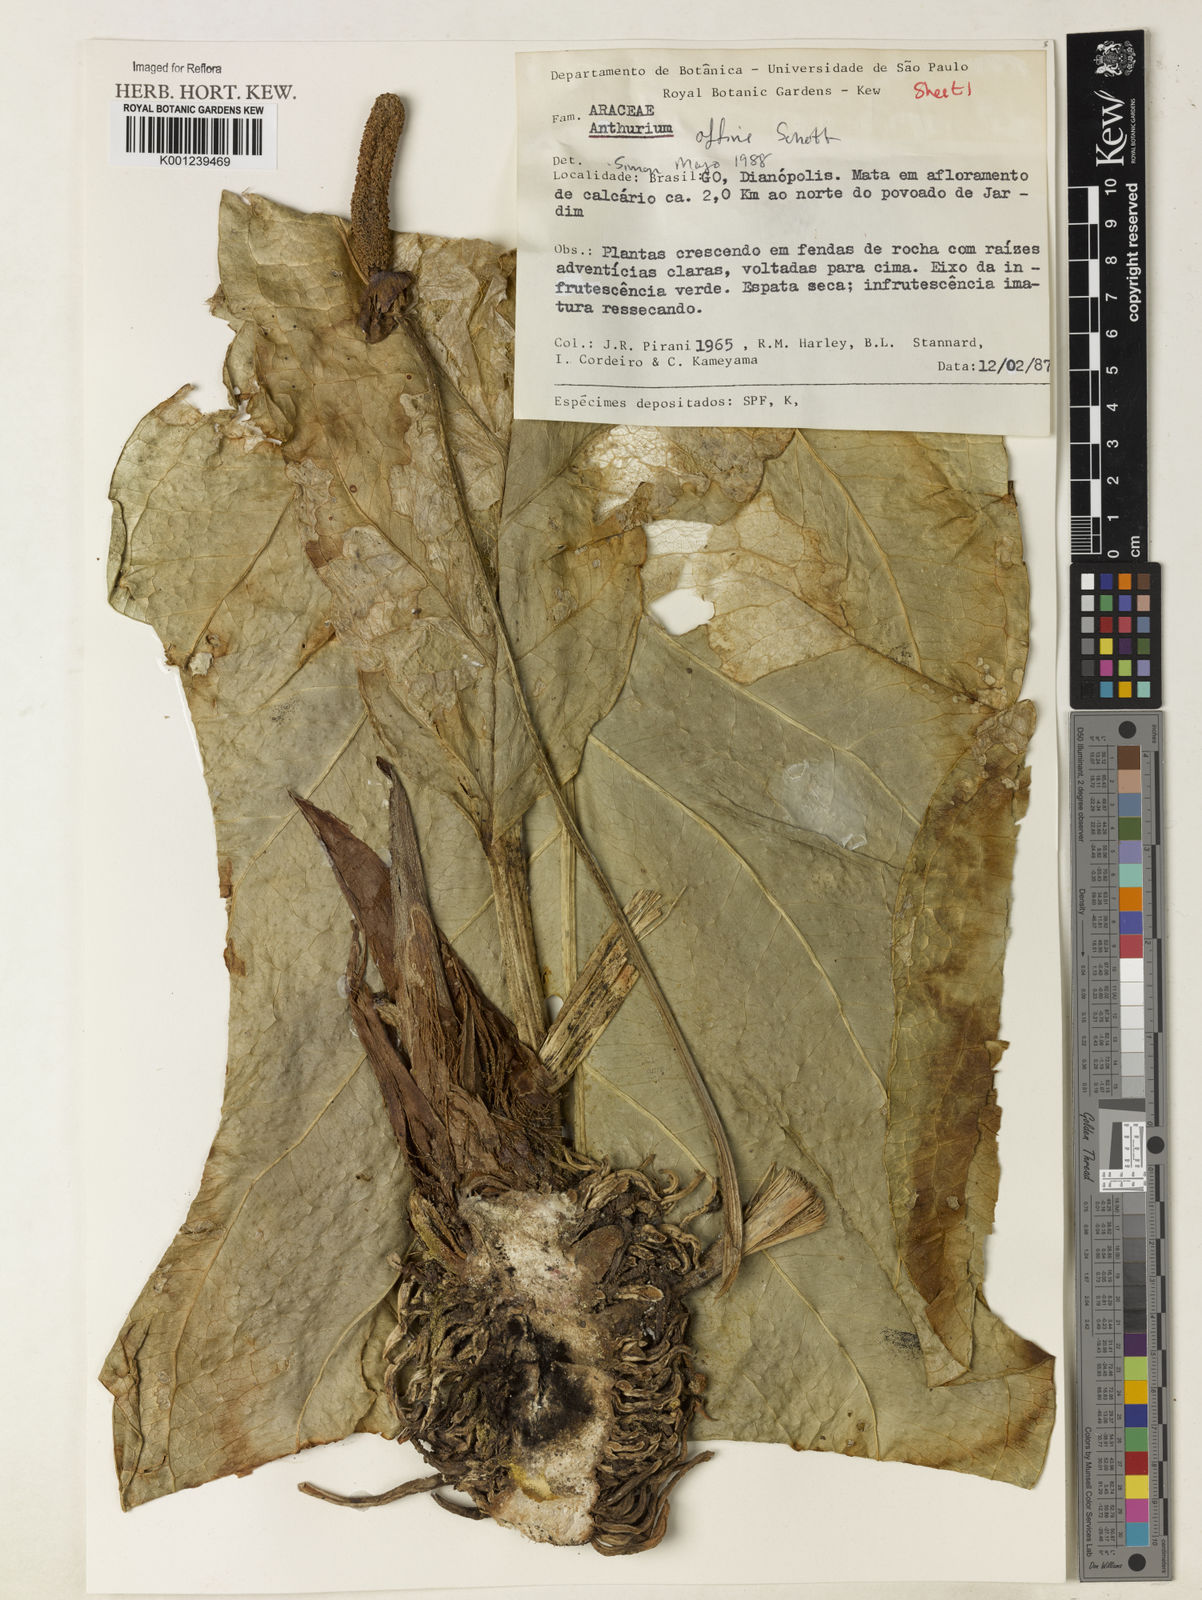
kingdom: Plantae
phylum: Tracheophyta
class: Liliopsida
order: Alismatales
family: Araceae
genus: Anthurium
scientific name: Anthurium affine
